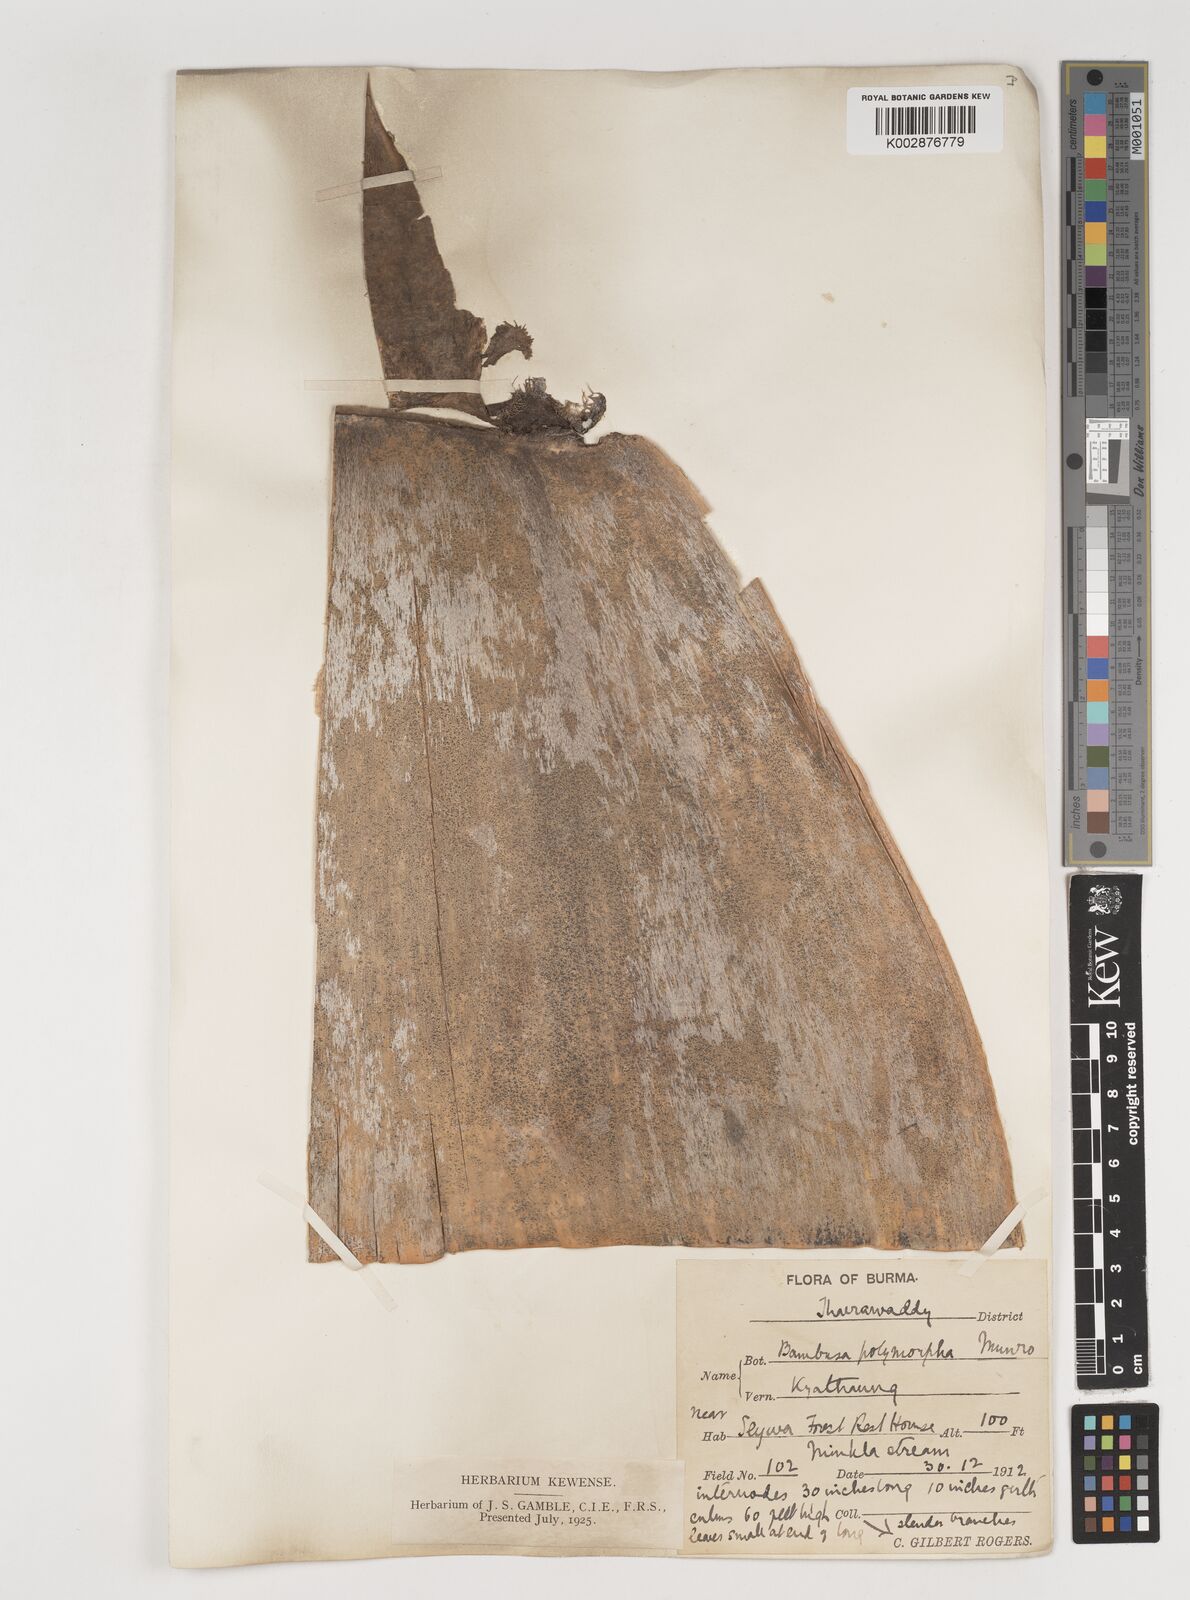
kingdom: Plantae
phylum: Tracheophyta
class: Liliopsida
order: Poales
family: Poaceae
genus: Bambusa
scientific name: Bambusa polymorpha
